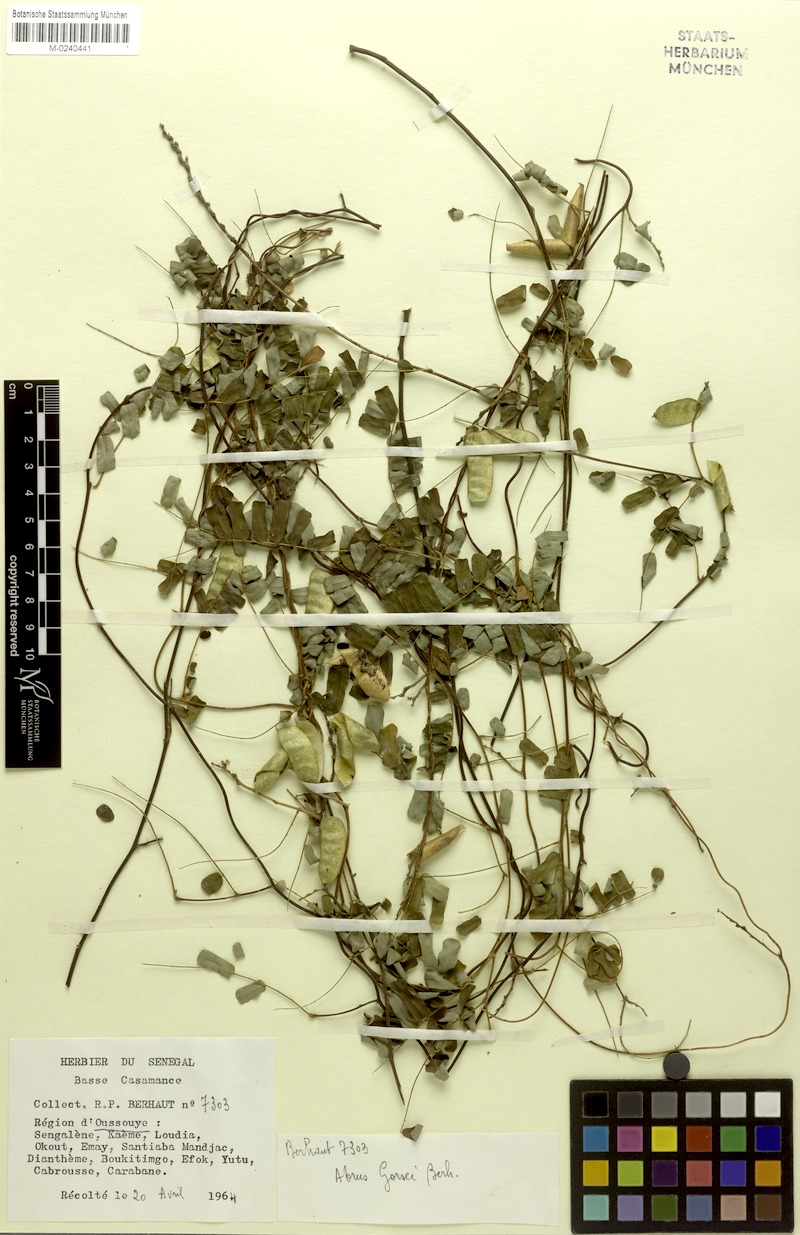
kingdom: Plantae
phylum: Tracheophyta
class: Magnoliopsida
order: Fabales
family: Fabaceae
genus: Abrus
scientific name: Abrus melanospermus
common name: Licorice-root
